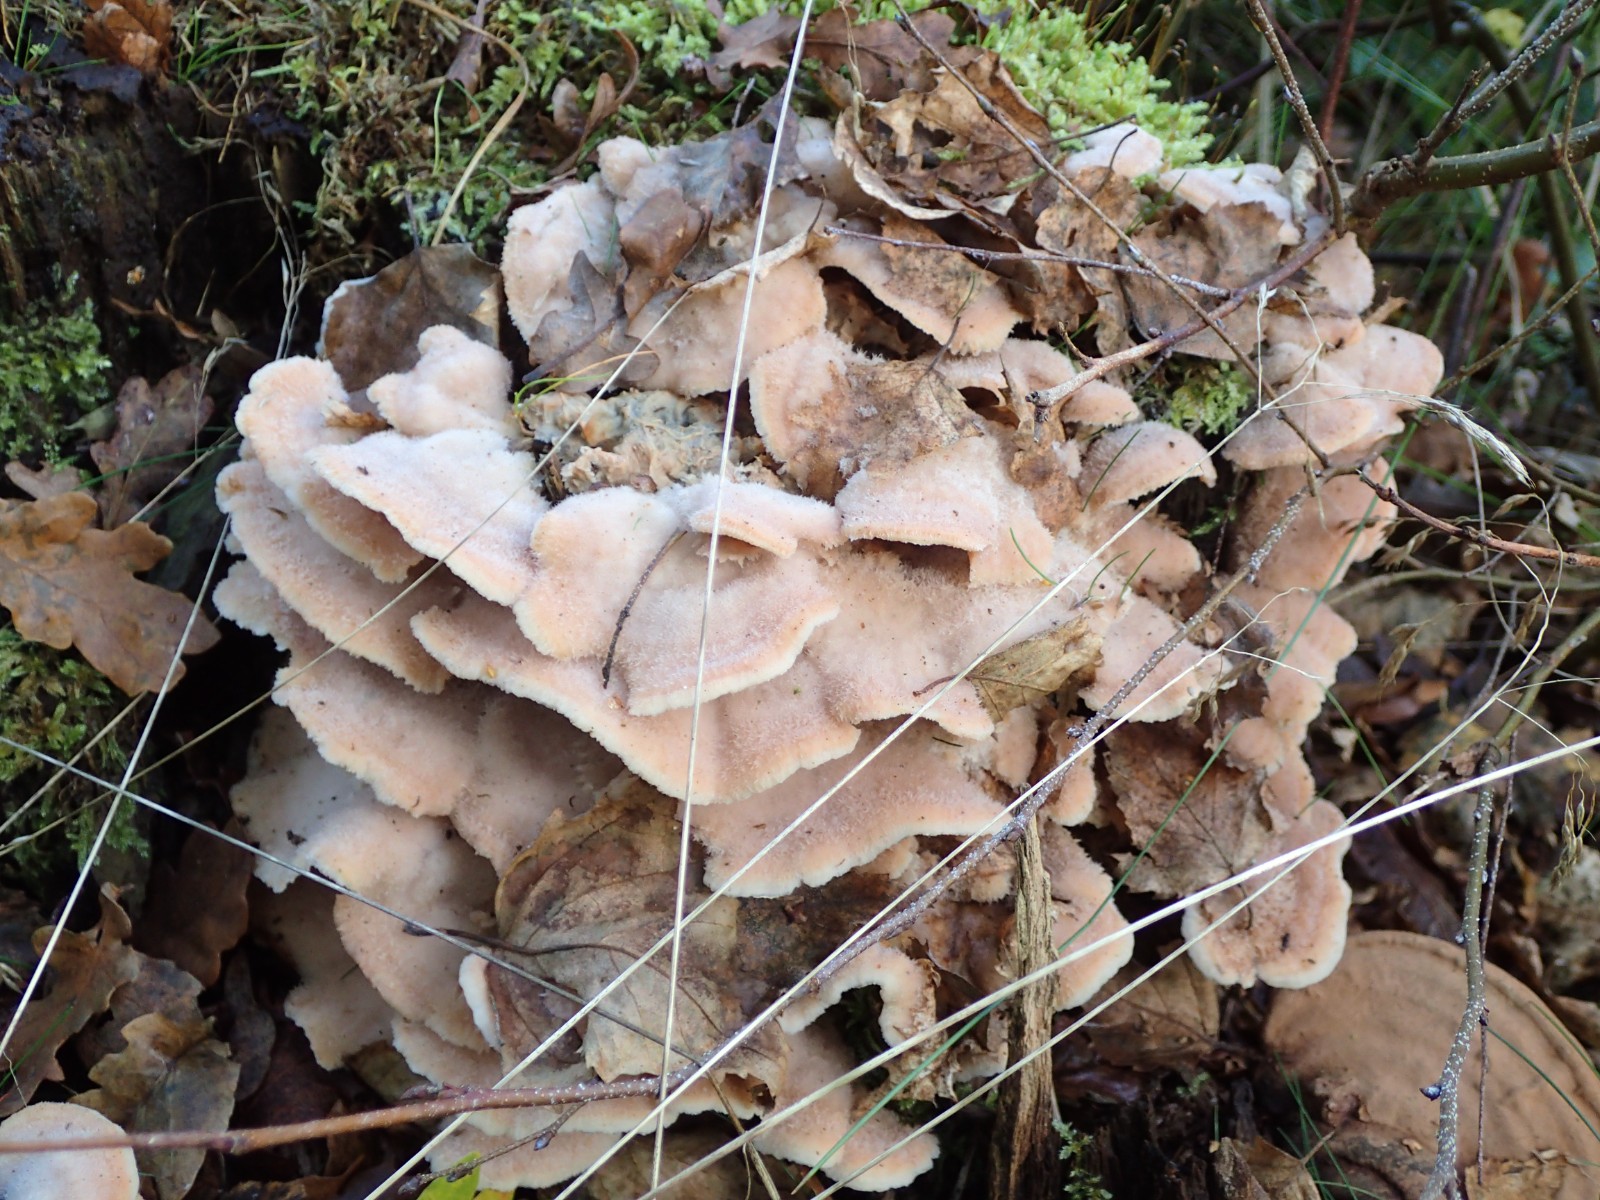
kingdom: Fungi
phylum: Basidiomycota
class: Agaricomycetes
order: Polyporales
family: Meruliaceae
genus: Phlebia
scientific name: Phlebia tremellosa
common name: bævrende åresvamp
